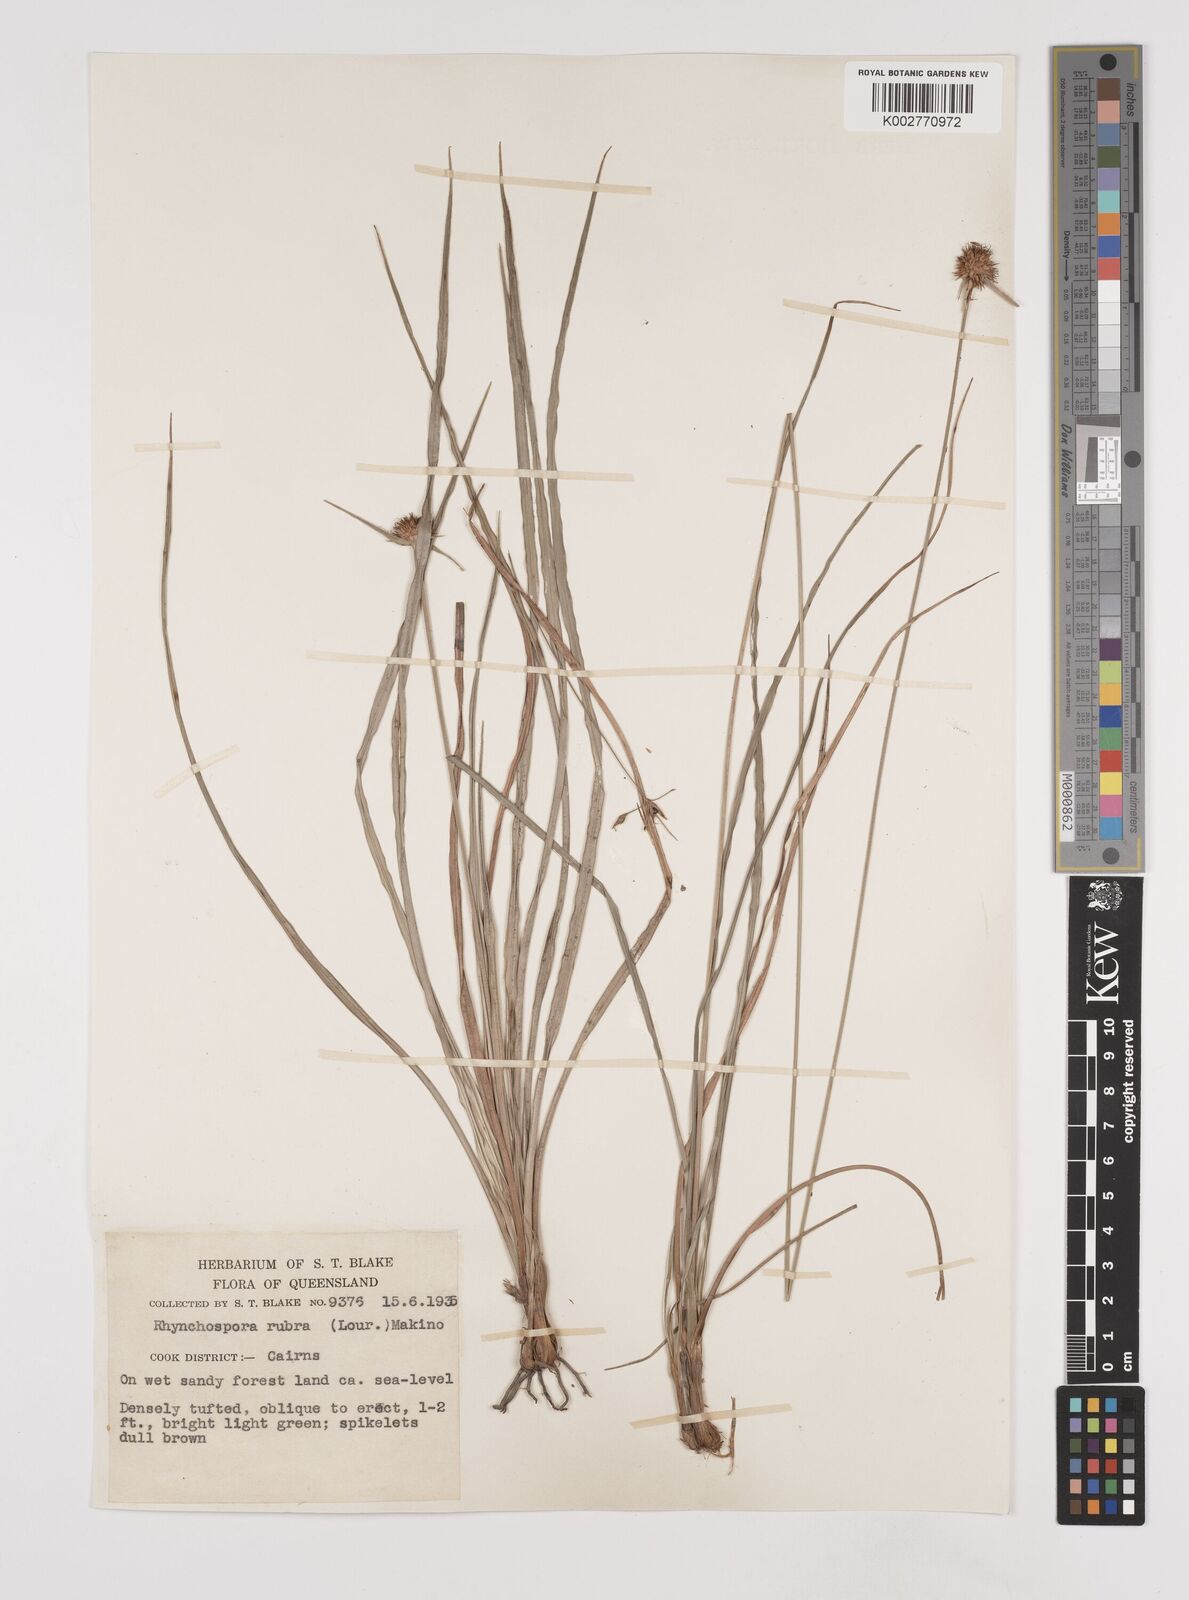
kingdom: Plantae
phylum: Tracheophyta
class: Liliopsida
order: Poales
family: Cyperaceae
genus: Rhynchospora
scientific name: Rhynchospora rubra
